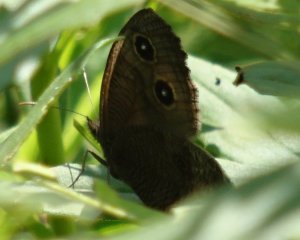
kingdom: Animalia
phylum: Arthropoda
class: Insecta
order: Lepidoptera
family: Nymphalidae
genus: Cercyonis
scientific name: Cercyonis pegala
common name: Common Wood-Nymph
